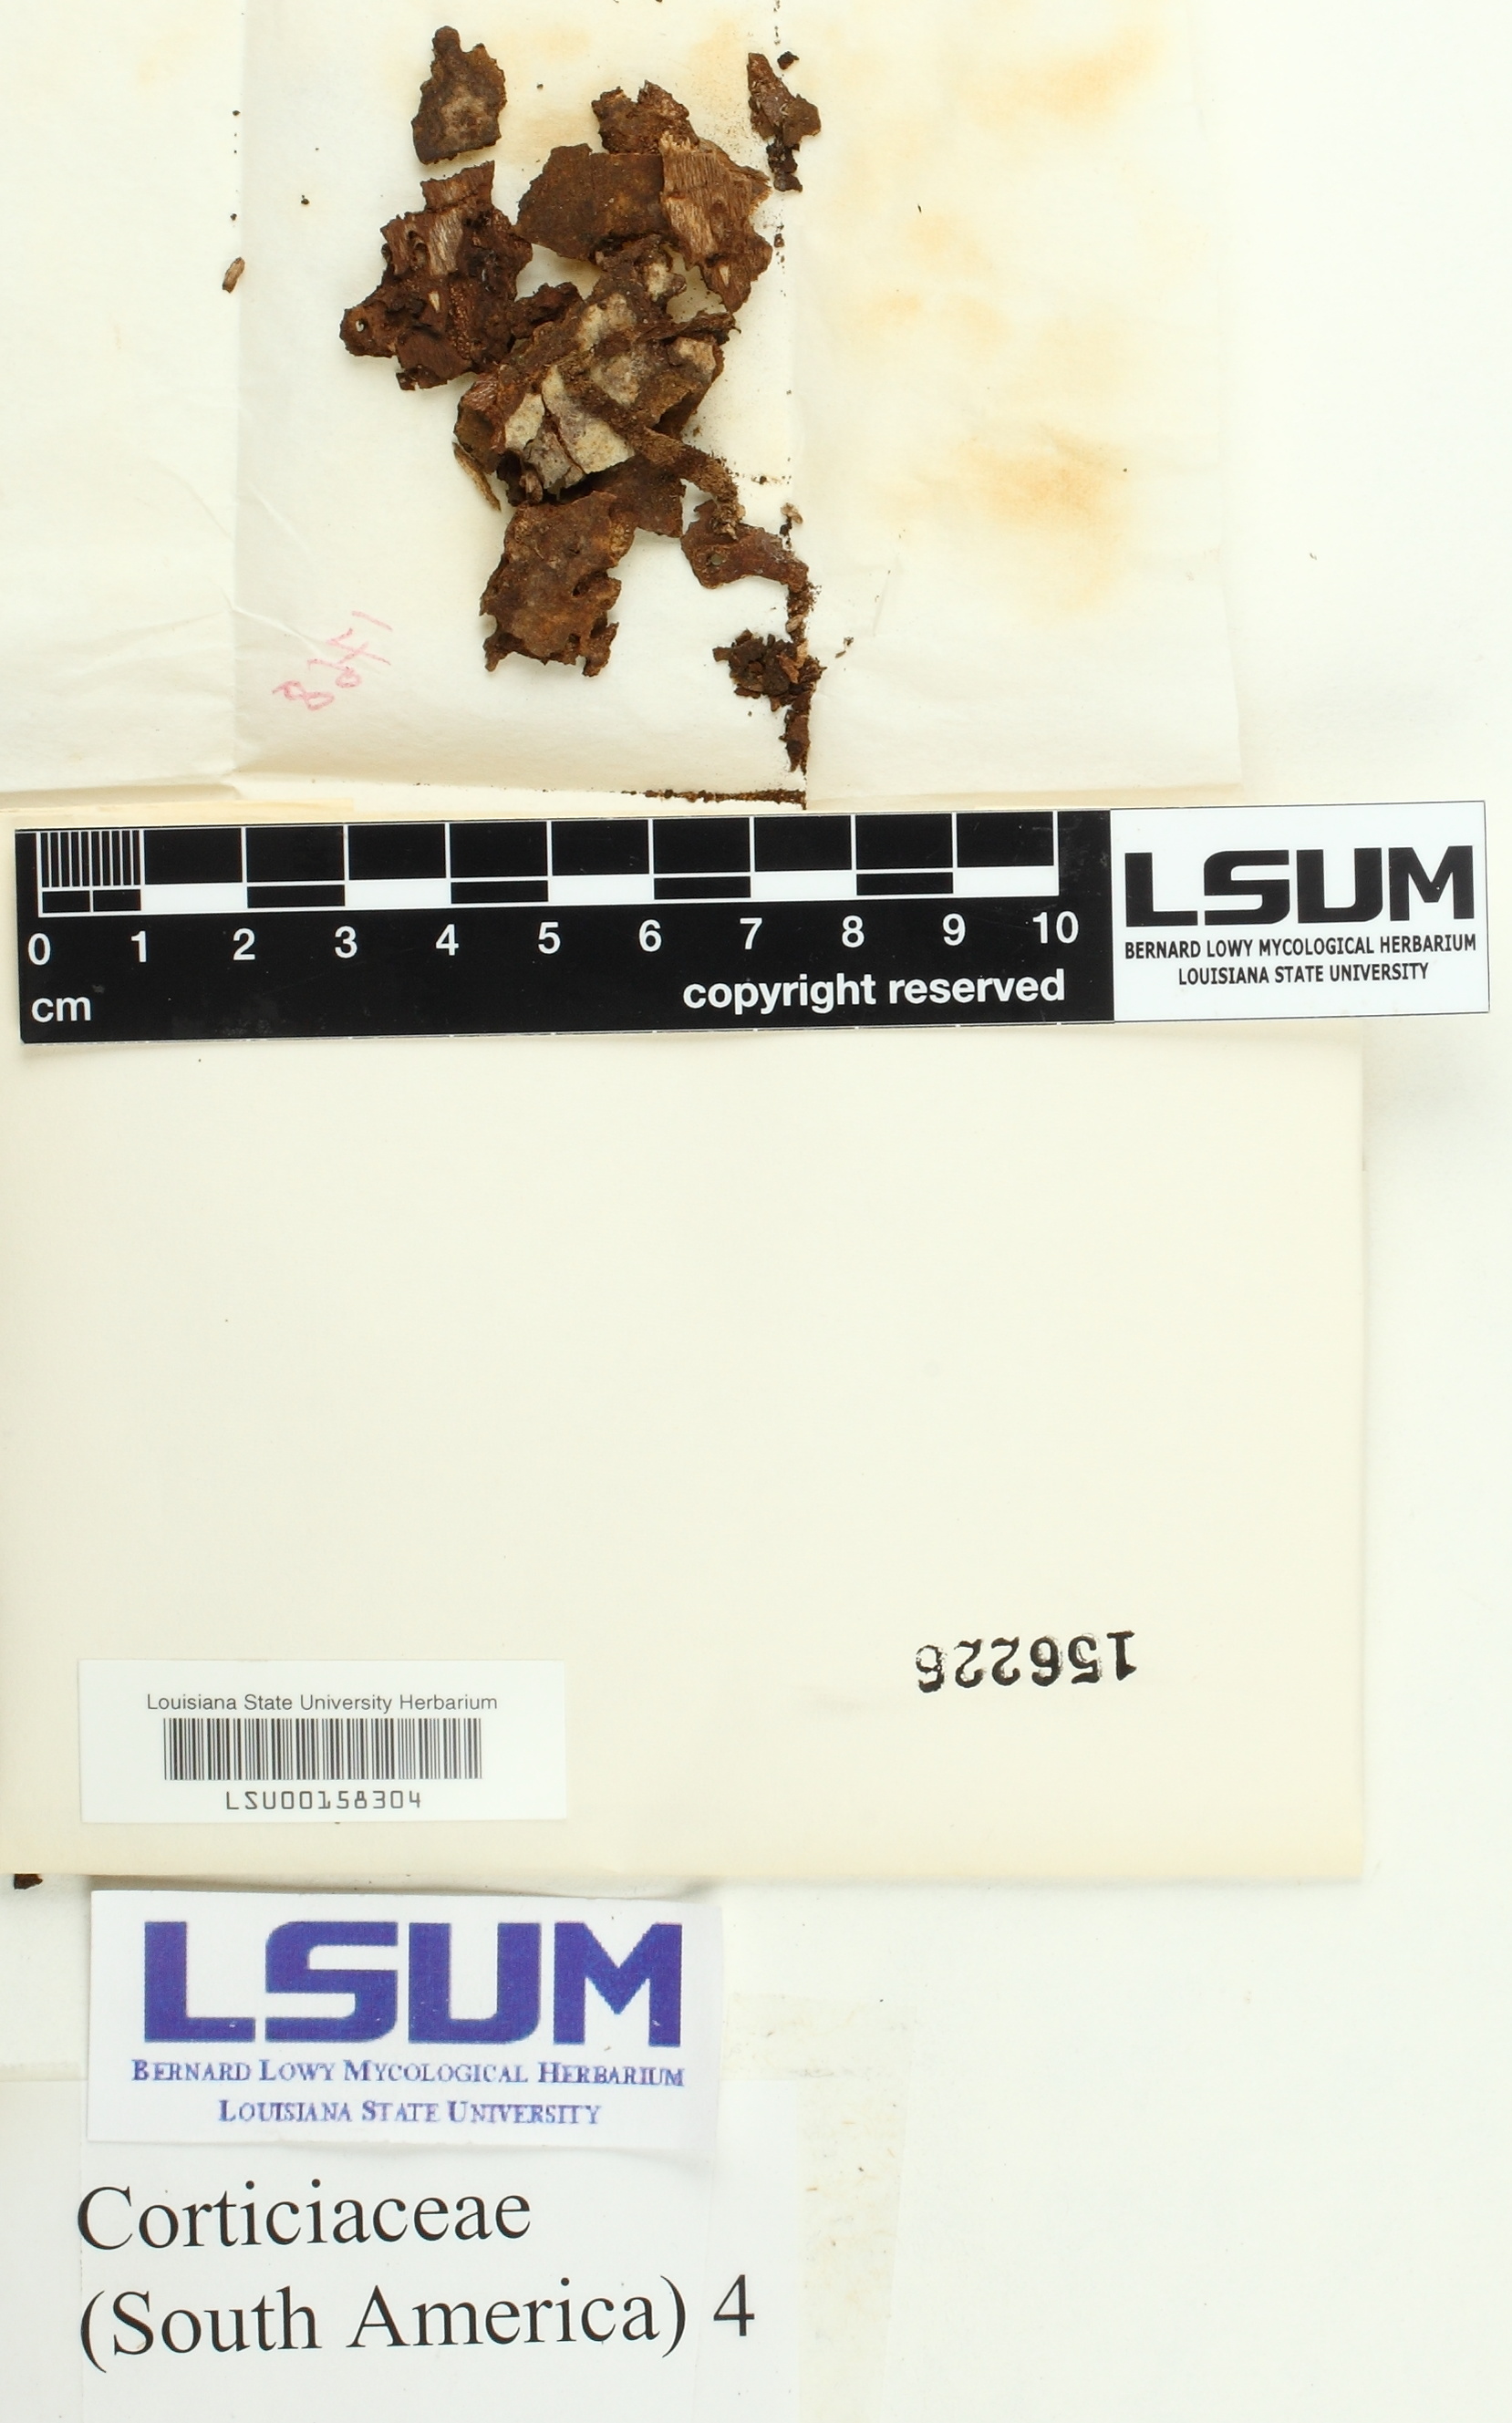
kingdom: Fungi
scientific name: Fungi
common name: Fungi
